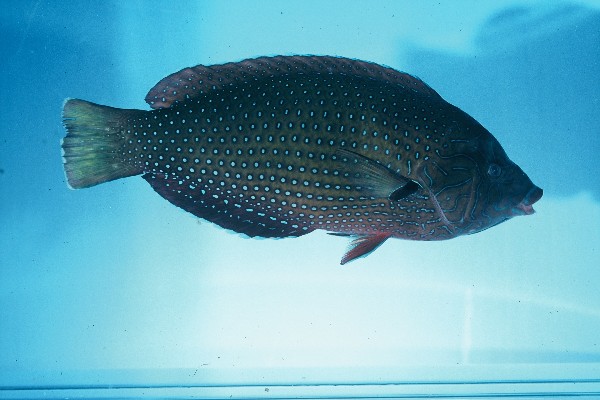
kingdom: Animalia
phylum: Chordata
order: Perciformes
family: Labridae
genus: Anampses
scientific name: Anampses caeruleopunctatus
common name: Bluespotted wrasse
